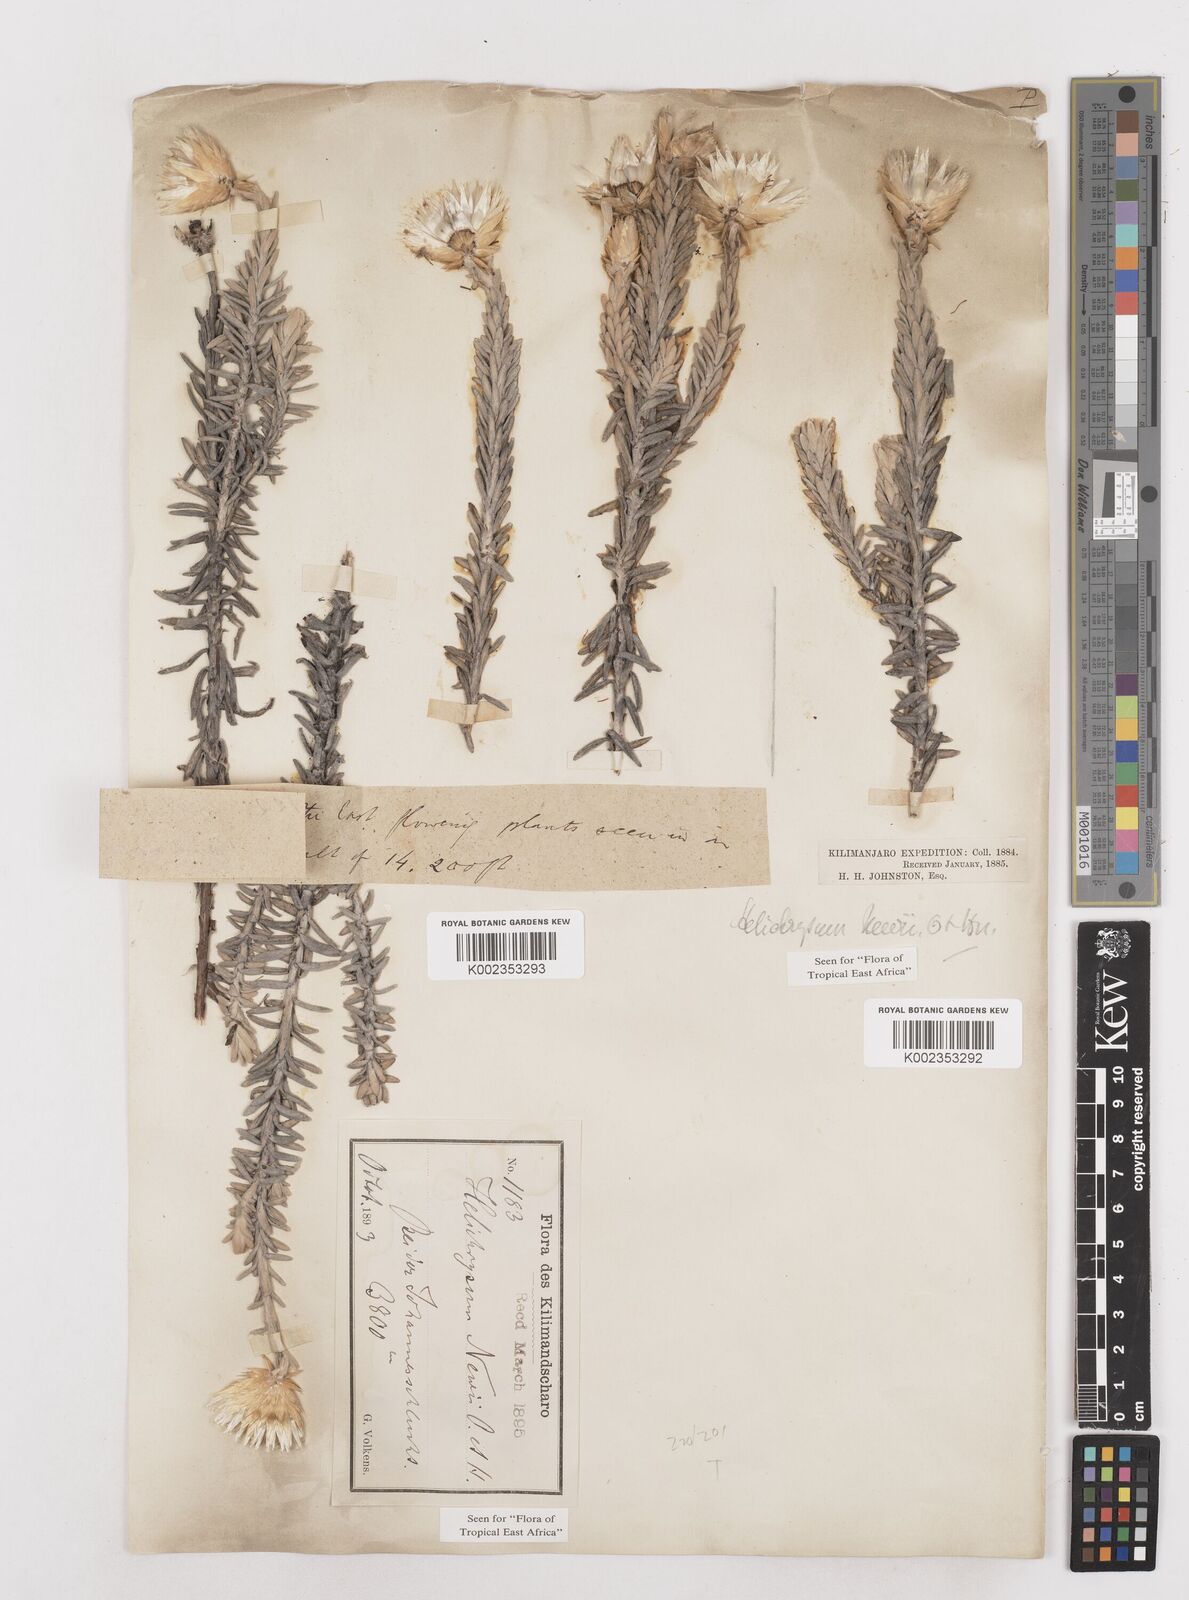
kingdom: Plantae
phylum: Tracheophyta
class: Magnoliopsida
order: Asterales
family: Asteraceae
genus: Helichrysum
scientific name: Helichrysum newii
